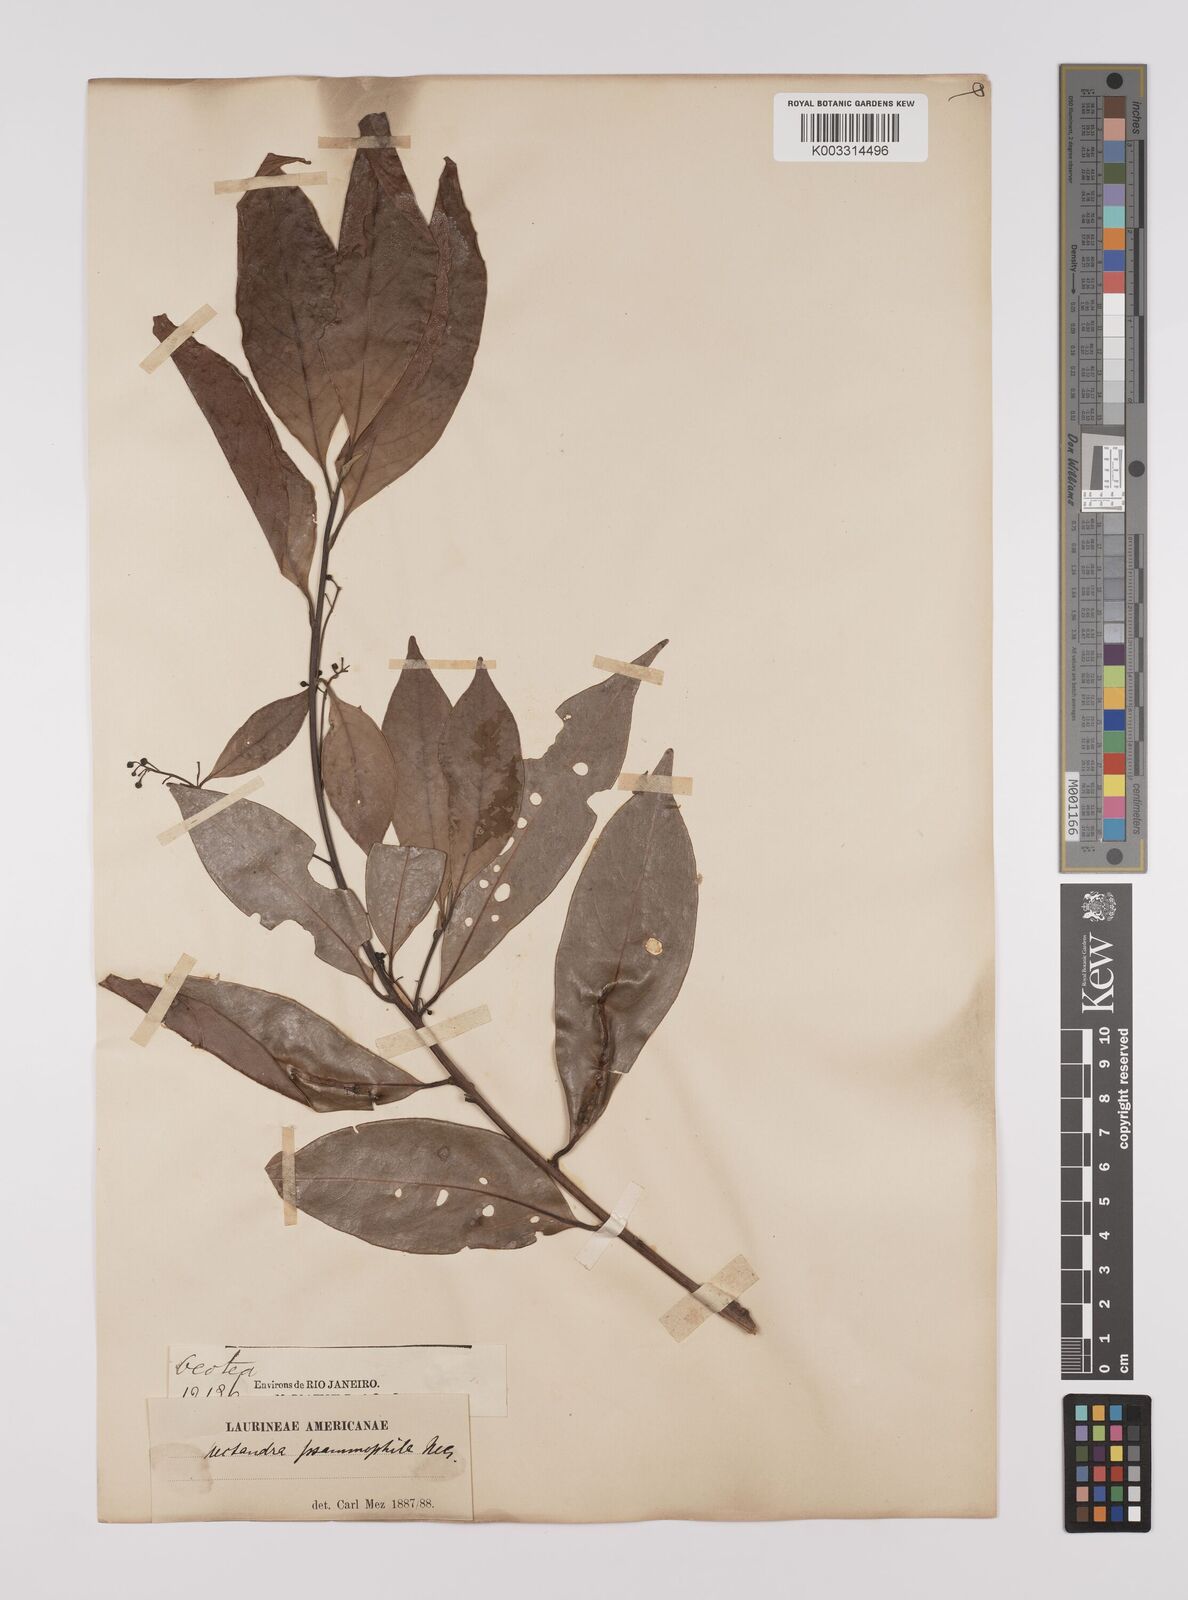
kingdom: Plantae
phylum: Tracheophyta
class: Magnoliopsida
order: Laurales
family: Lauraceae
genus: Nectandra
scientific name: Nectandra psammophila
